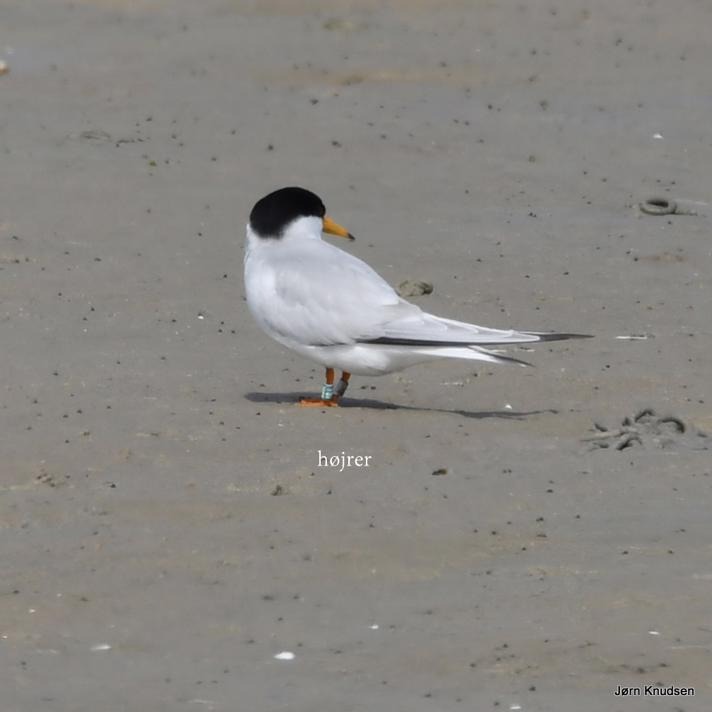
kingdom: Animalia
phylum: Chordata
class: Aves
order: Charadriiformes
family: Laridae
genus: Sternula
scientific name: Sternula albifrons
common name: Dværgterne
